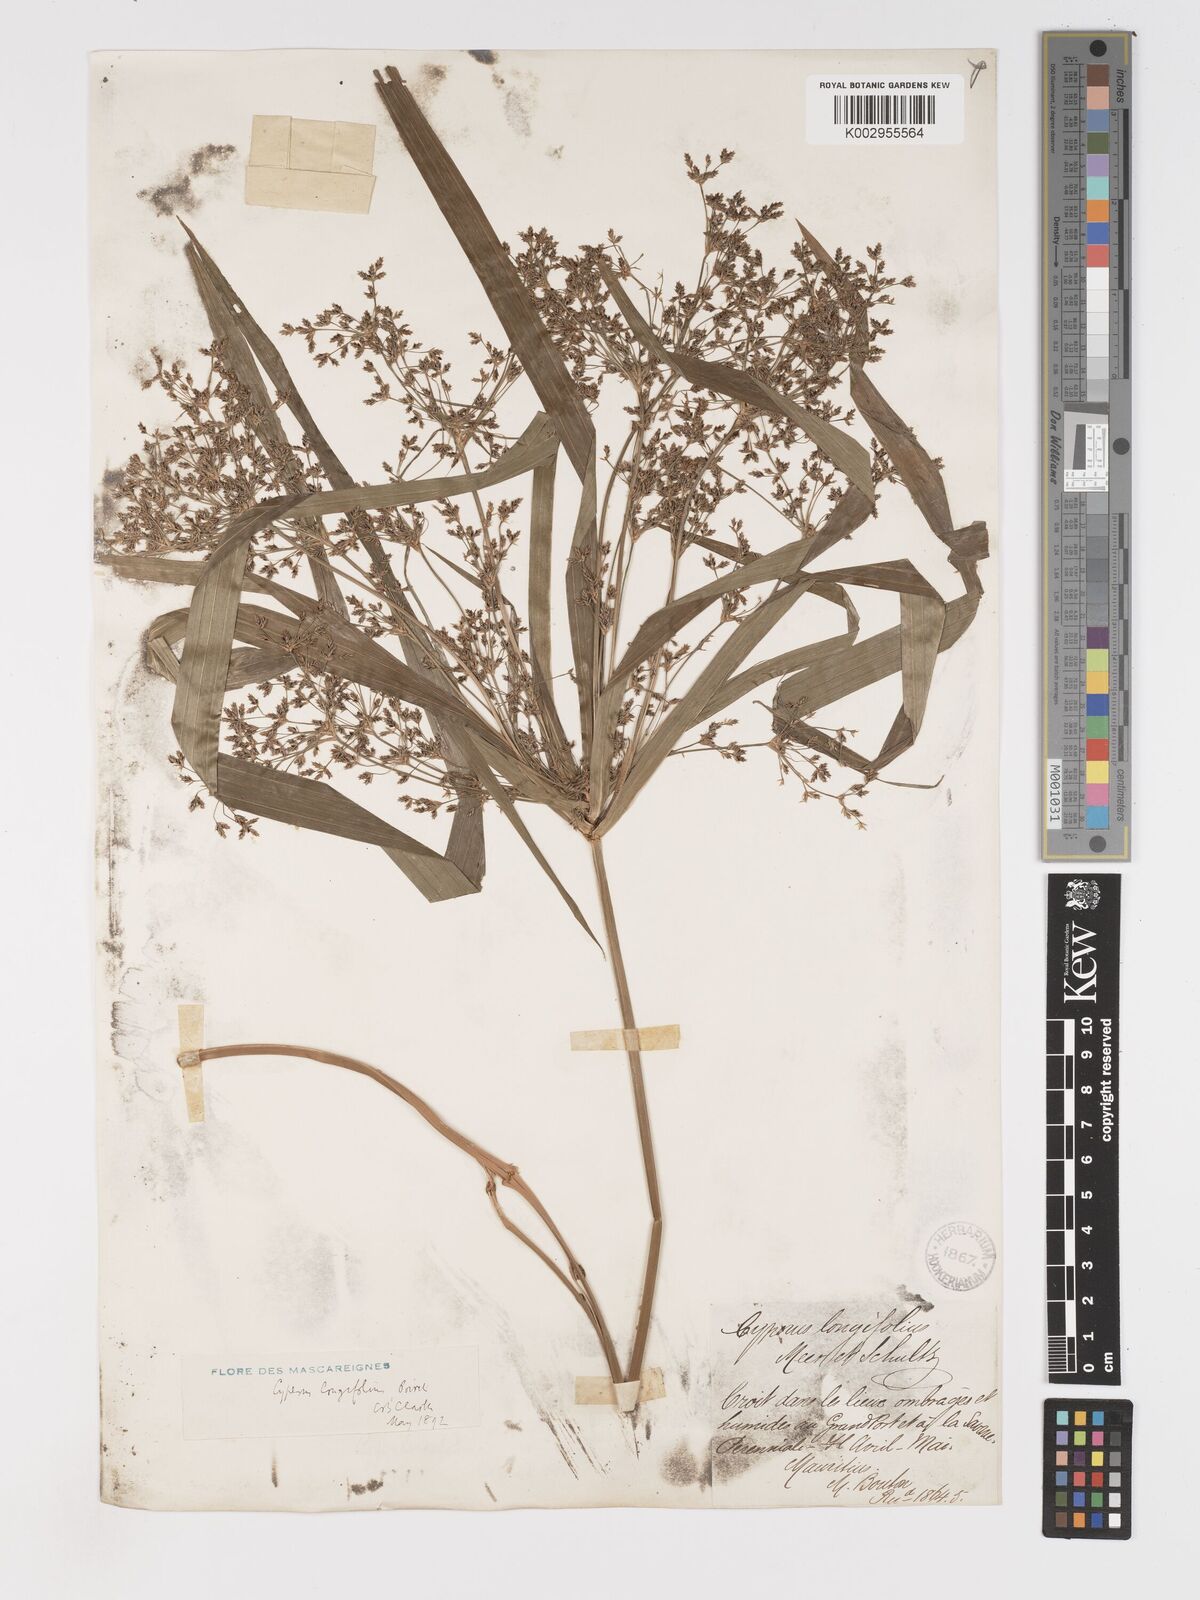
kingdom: Plantae
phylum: Tracheophyta
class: Liliopsida
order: Poales
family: Cyperaceae
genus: Cyperus
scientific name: Cyperus longifolius
